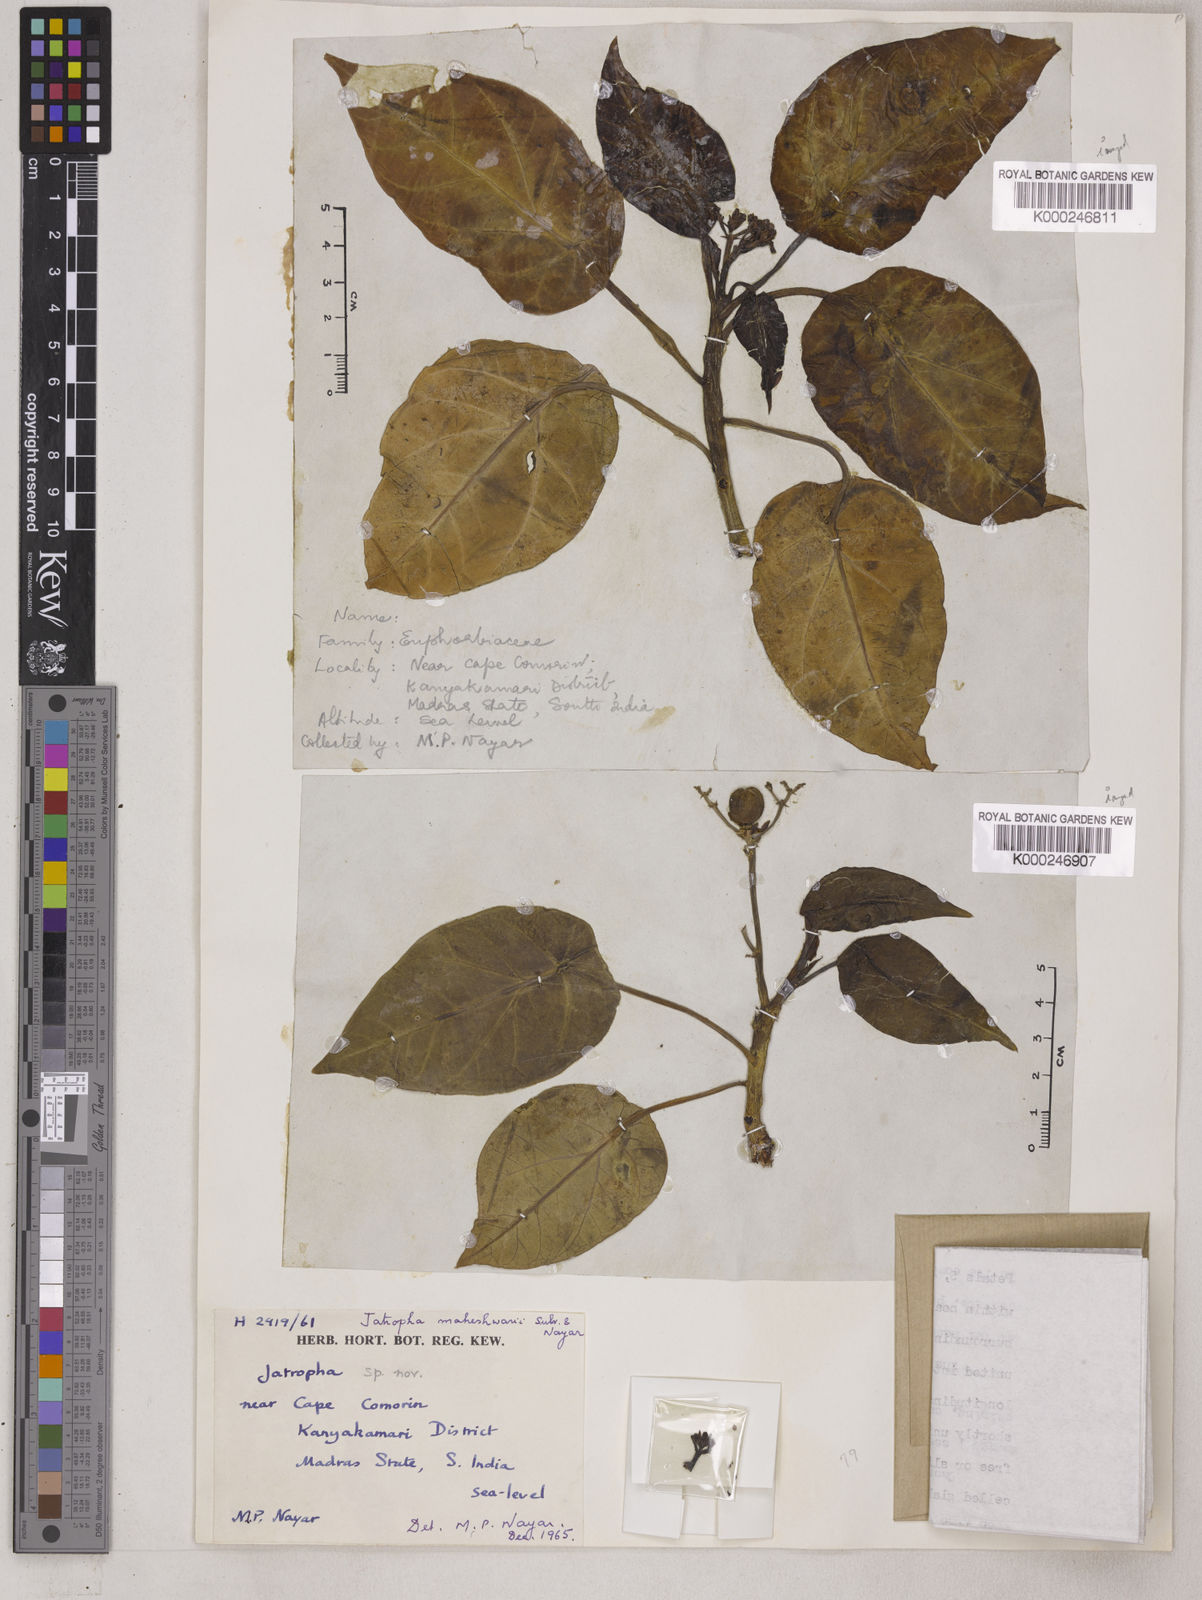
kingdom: Plantae
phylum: Tracheophyta
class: Magnoliopsida
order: Malpighiales
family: Euphorbiaceae
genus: Jatropha
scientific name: Jatropha maheshwarii
